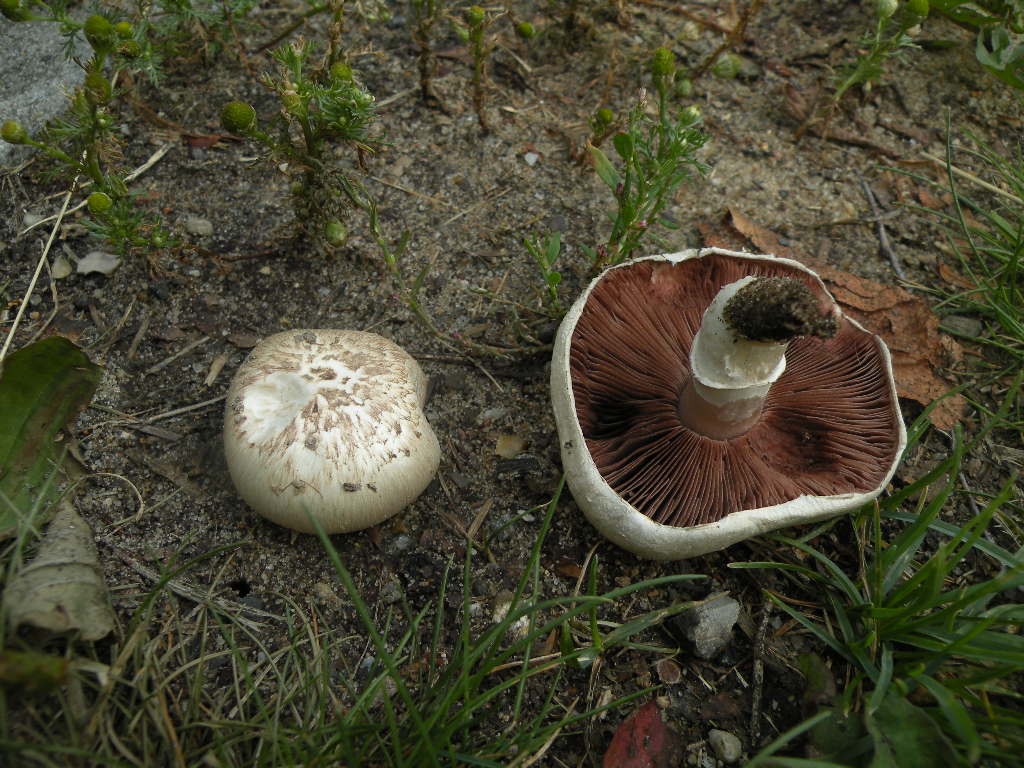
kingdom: Fungi
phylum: Basidiomycota
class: Agaricomycetes
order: Agaricales
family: Agaricaceae
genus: Agaricus
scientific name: Agaricus campestris
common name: mark-champignon
